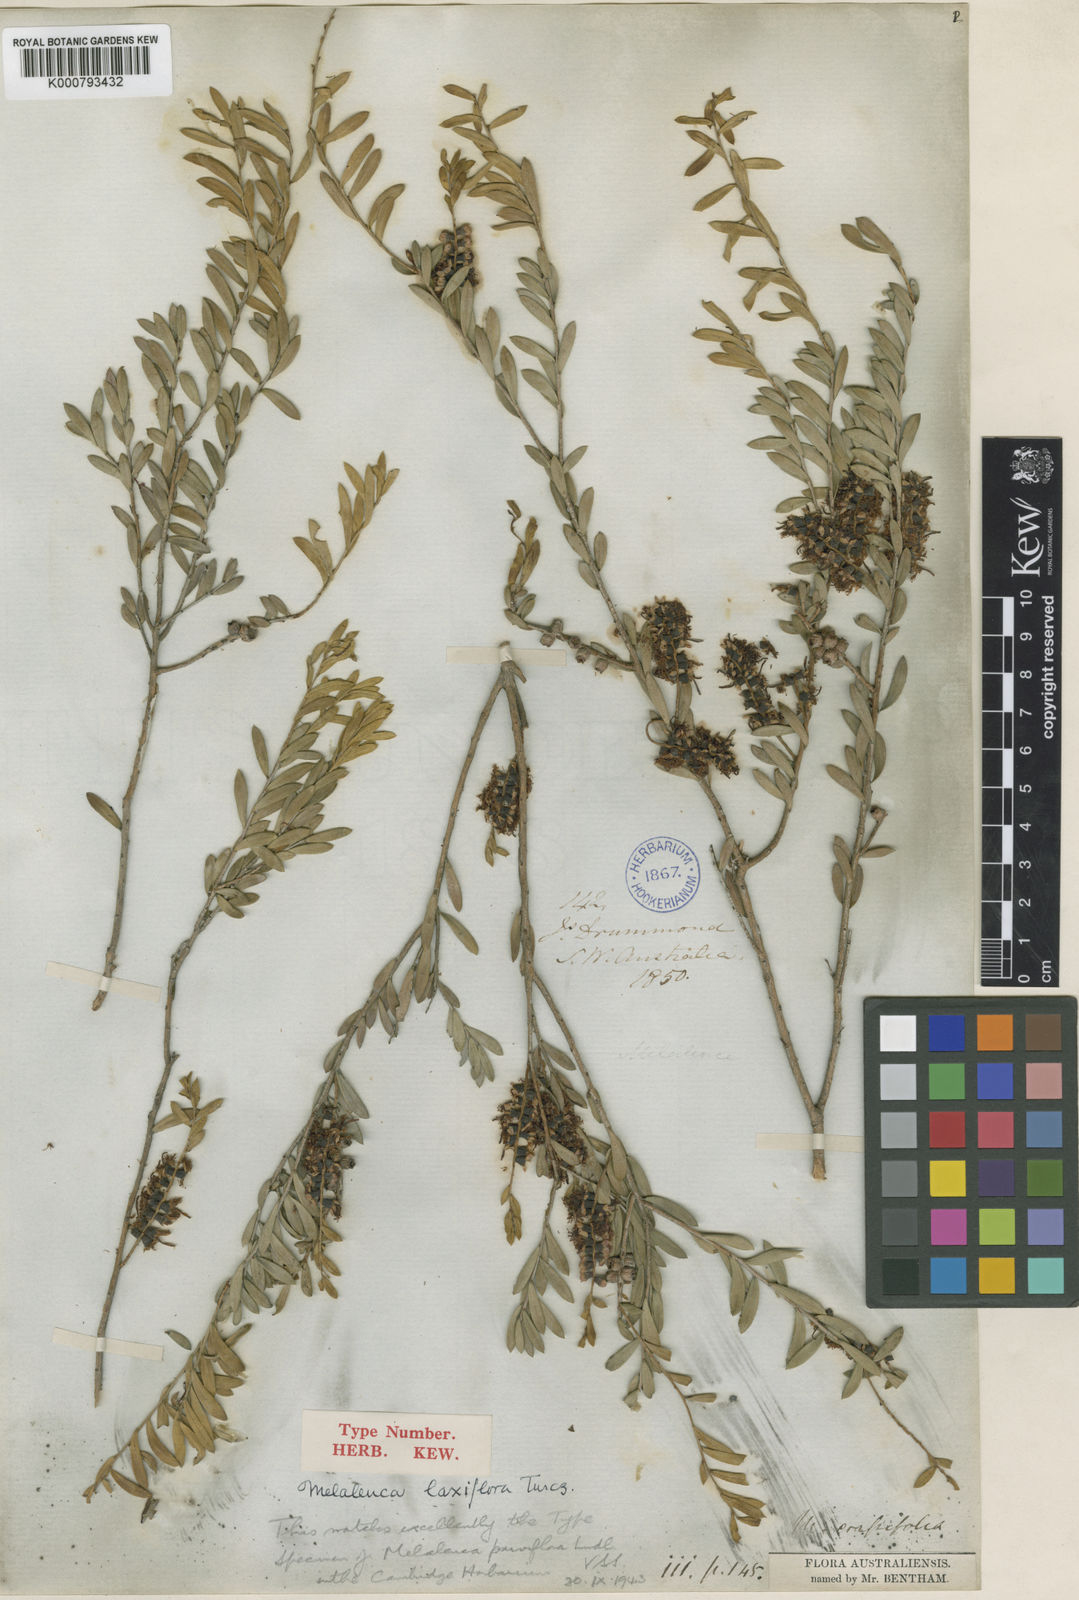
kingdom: Plantae
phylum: Tracheophyta
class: Magnoliopsida
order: Myrtales
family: Myrtaceae
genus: Melaleuca
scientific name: Melaleuca laxiflora
